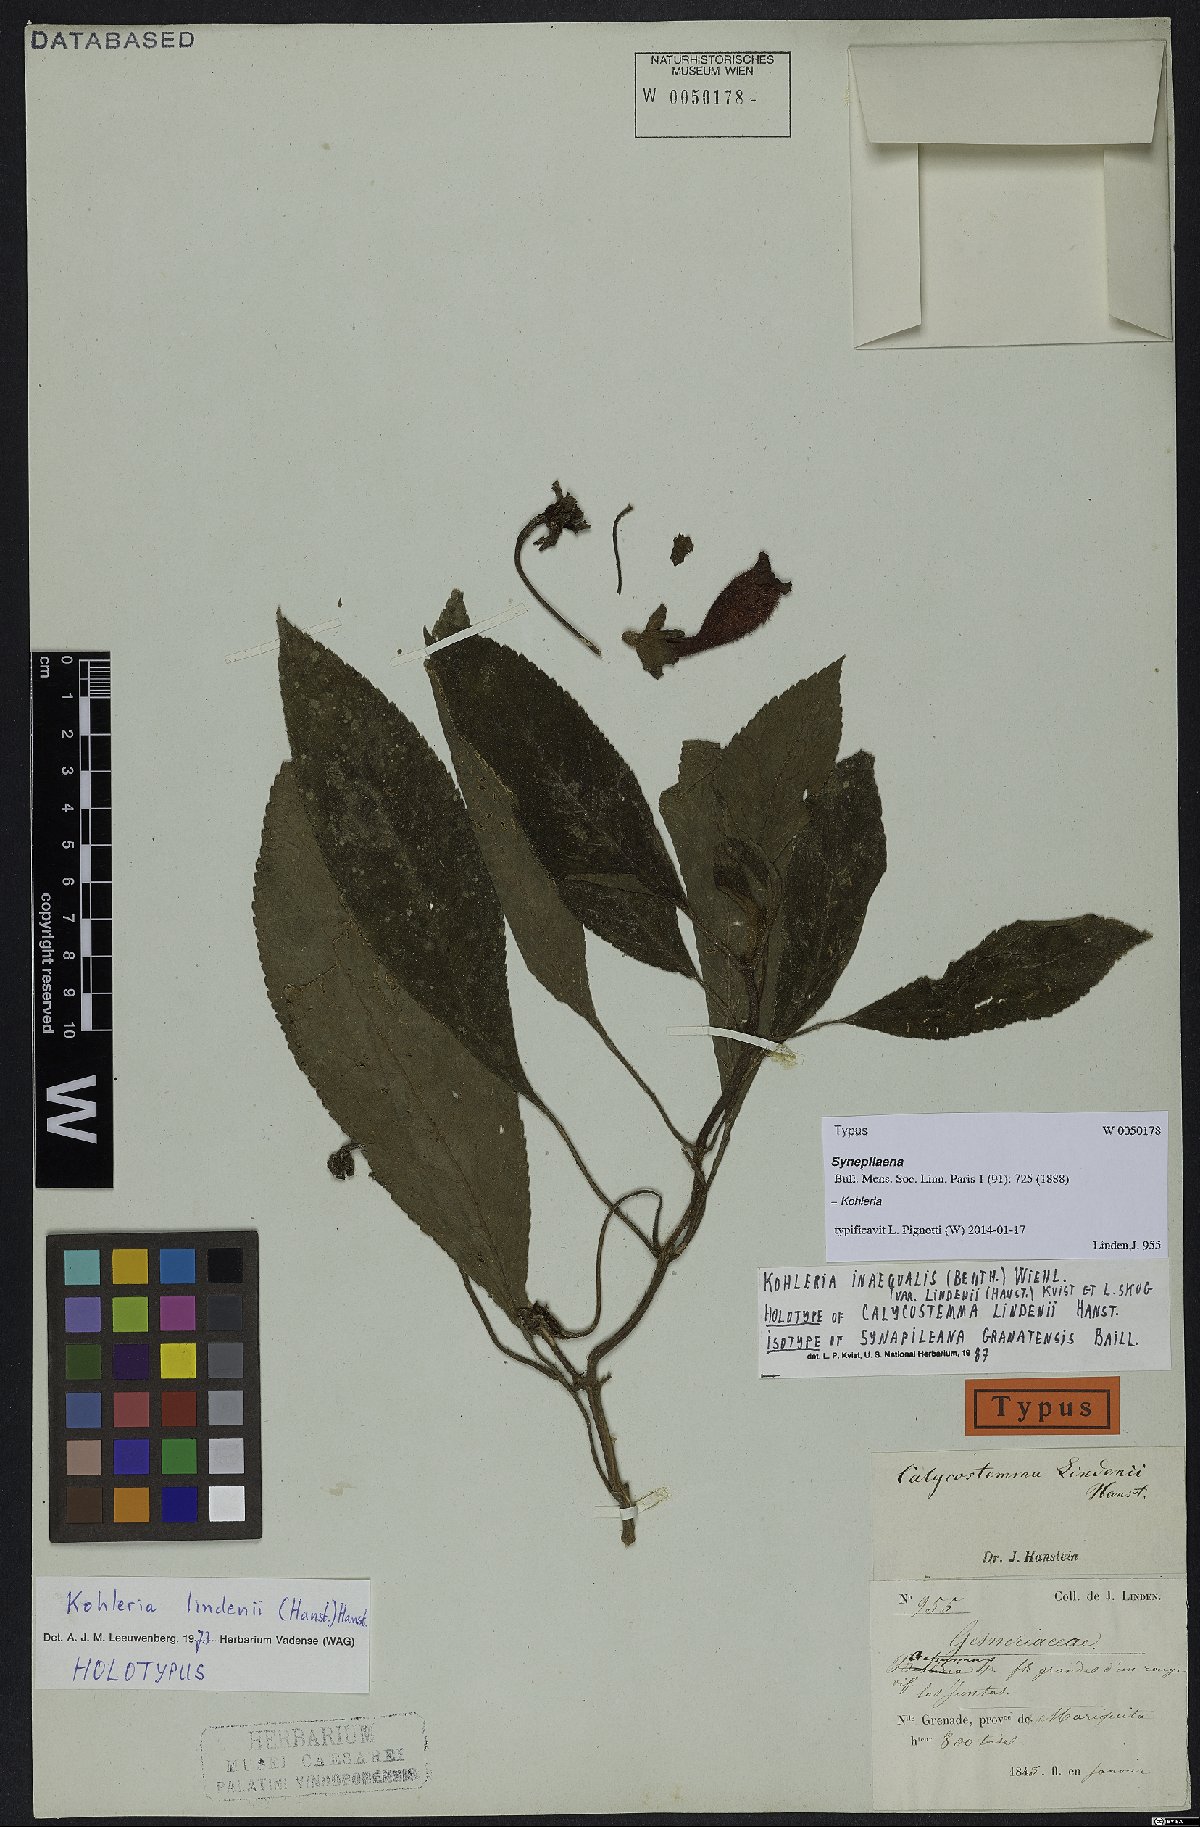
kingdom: Plantae
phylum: Tracheophyta
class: Magnoliopsida
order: Lamiales
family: Gesneriaceae
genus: Kohleria
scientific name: Kohleria inaequalis
